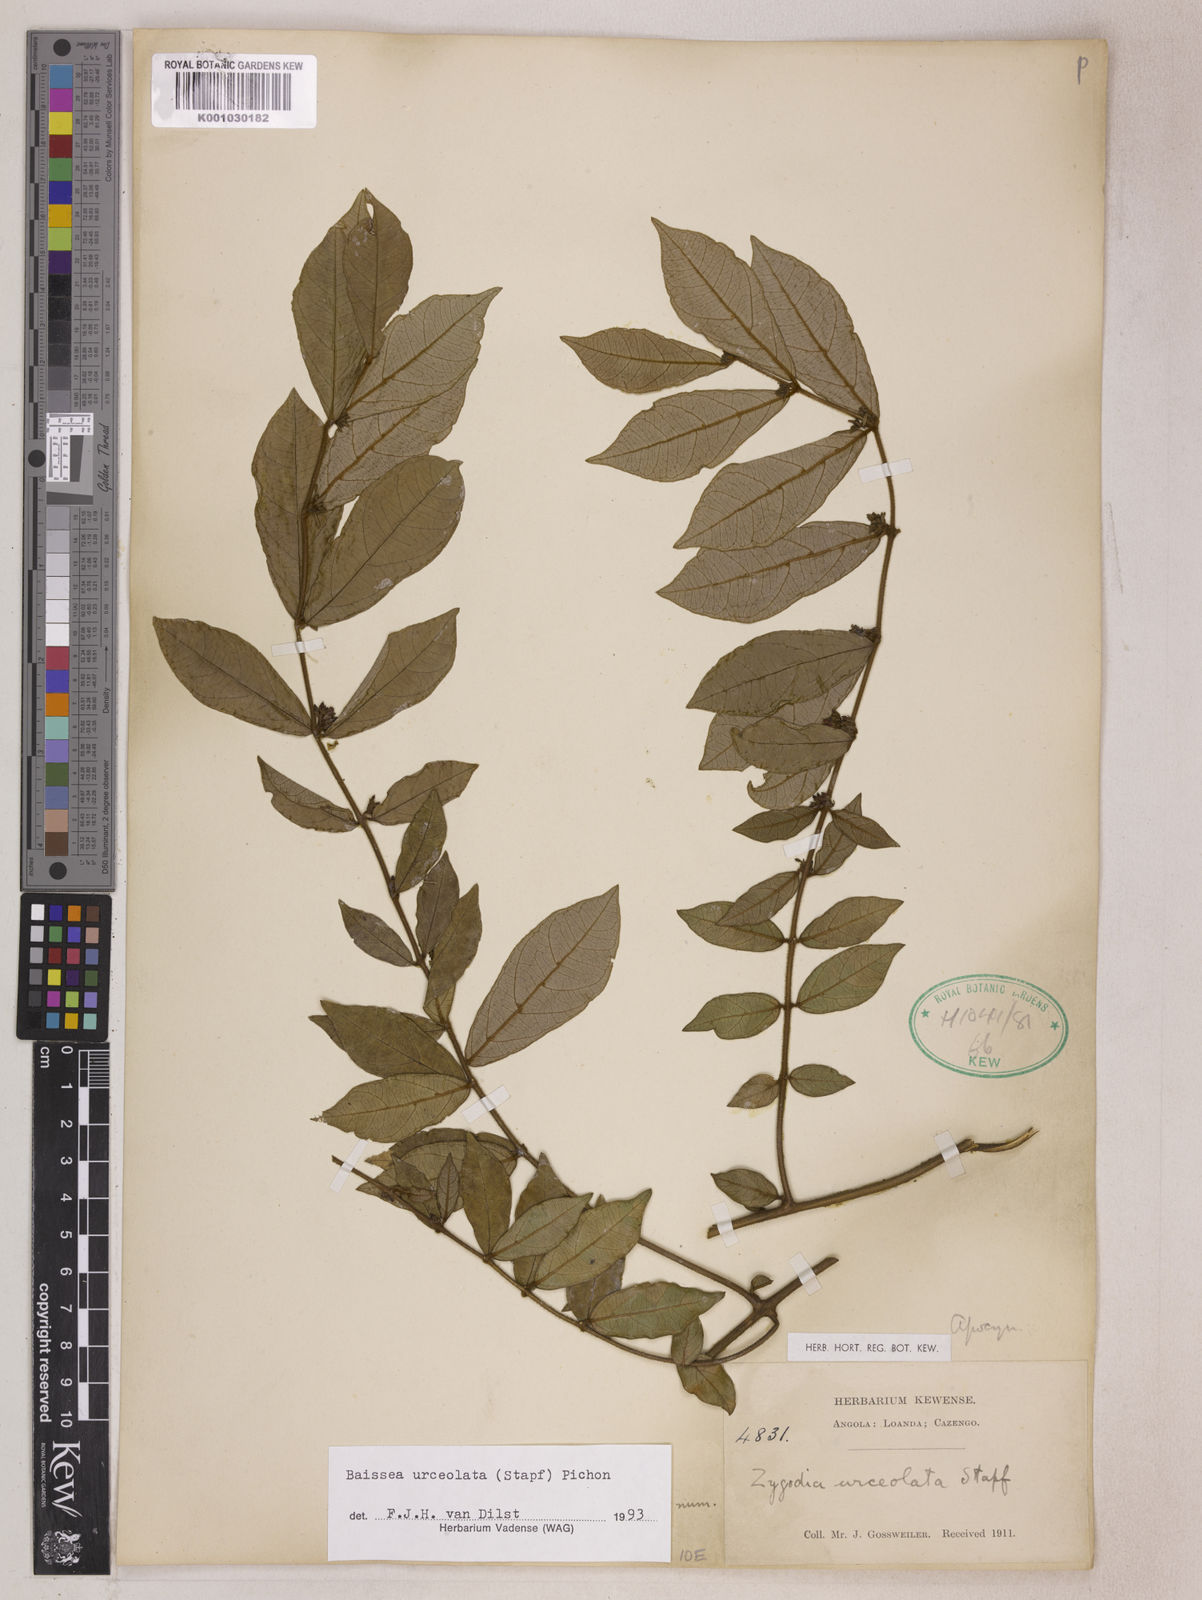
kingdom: Plantae
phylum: Tracheophyta
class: Magnoliopsida
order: Gentianales
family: Apocynaceae
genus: Baissea
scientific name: Baissea myrtifolia
